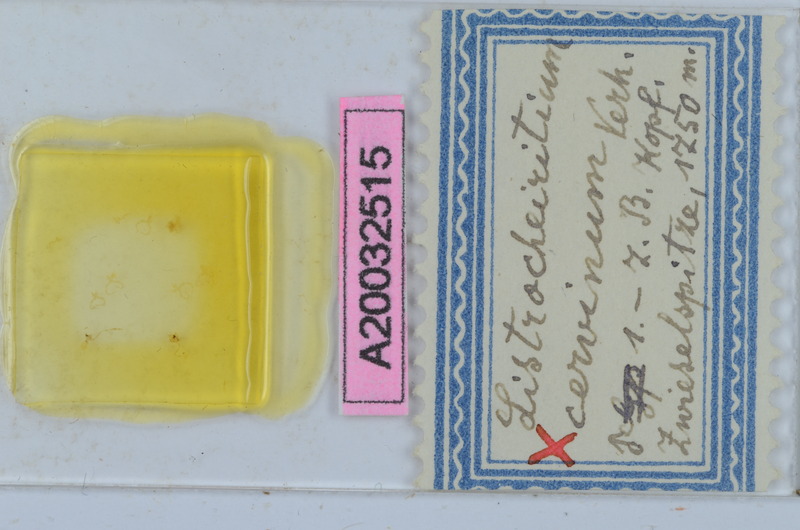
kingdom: Animalia
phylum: Arthropoda
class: Diplopoda
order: Chordeumatida
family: Craspedosomatidae
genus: Listrocheiritium
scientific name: Listrocheiritium cervinum
